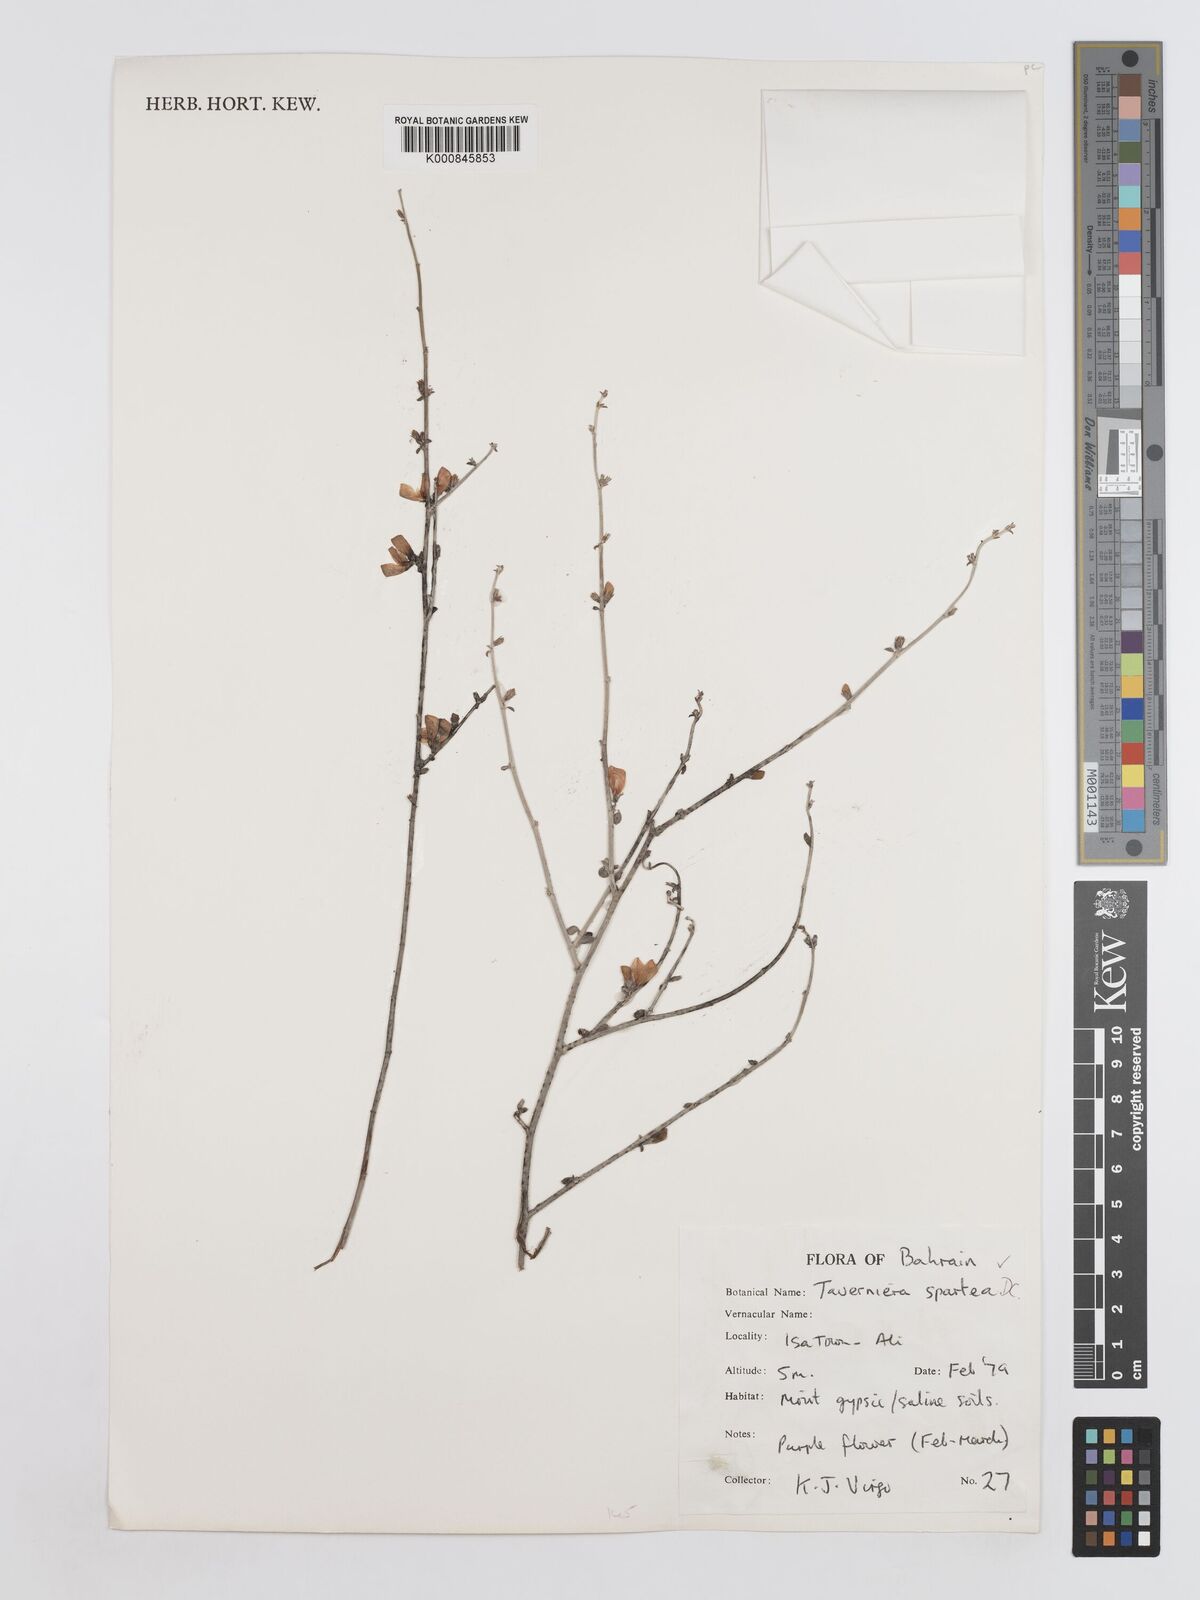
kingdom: Plantae
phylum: Tracheophyta
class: Magnoliopsida
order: Fabales
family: Fabaceae
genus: Taverniera
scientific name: Taverniera spartea
